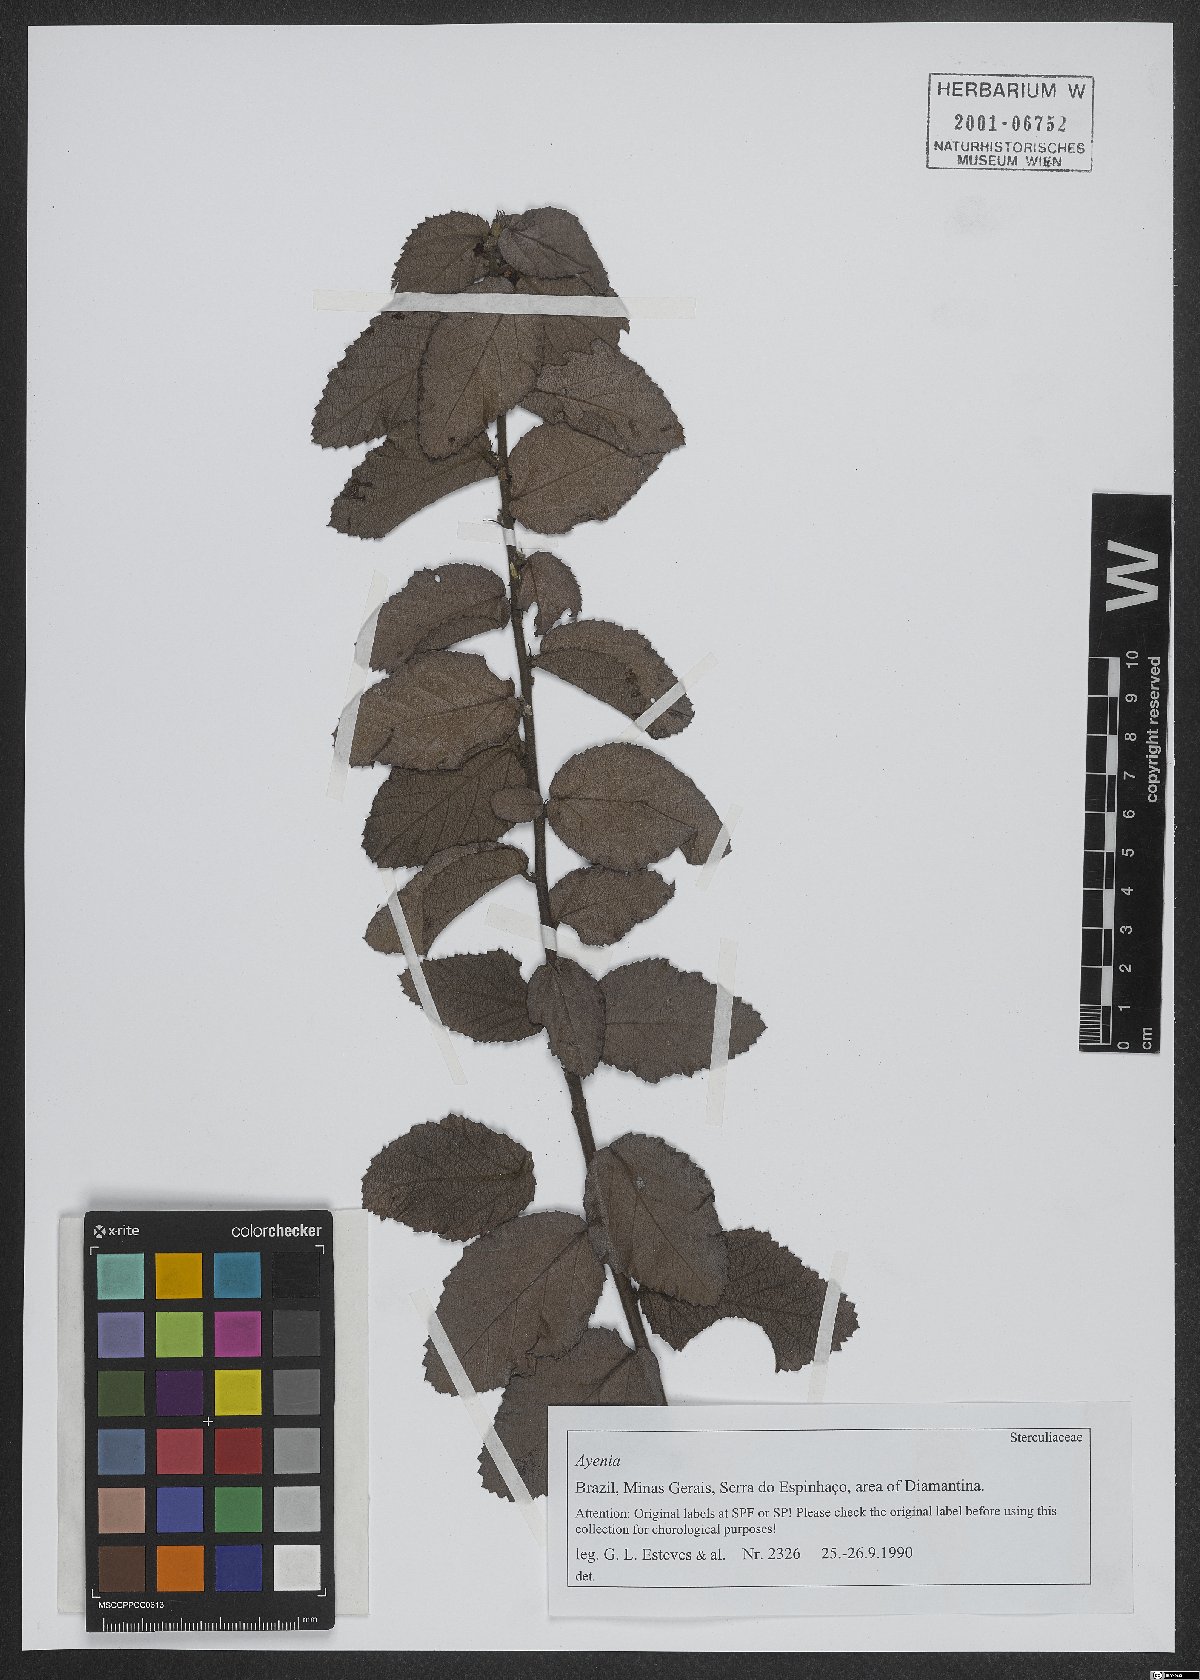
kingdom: Plantae
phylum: Tracheophyta
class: Magnoliopsida
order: Malvales
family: Malvaceae
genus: Ayenia
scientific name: Ayenia
